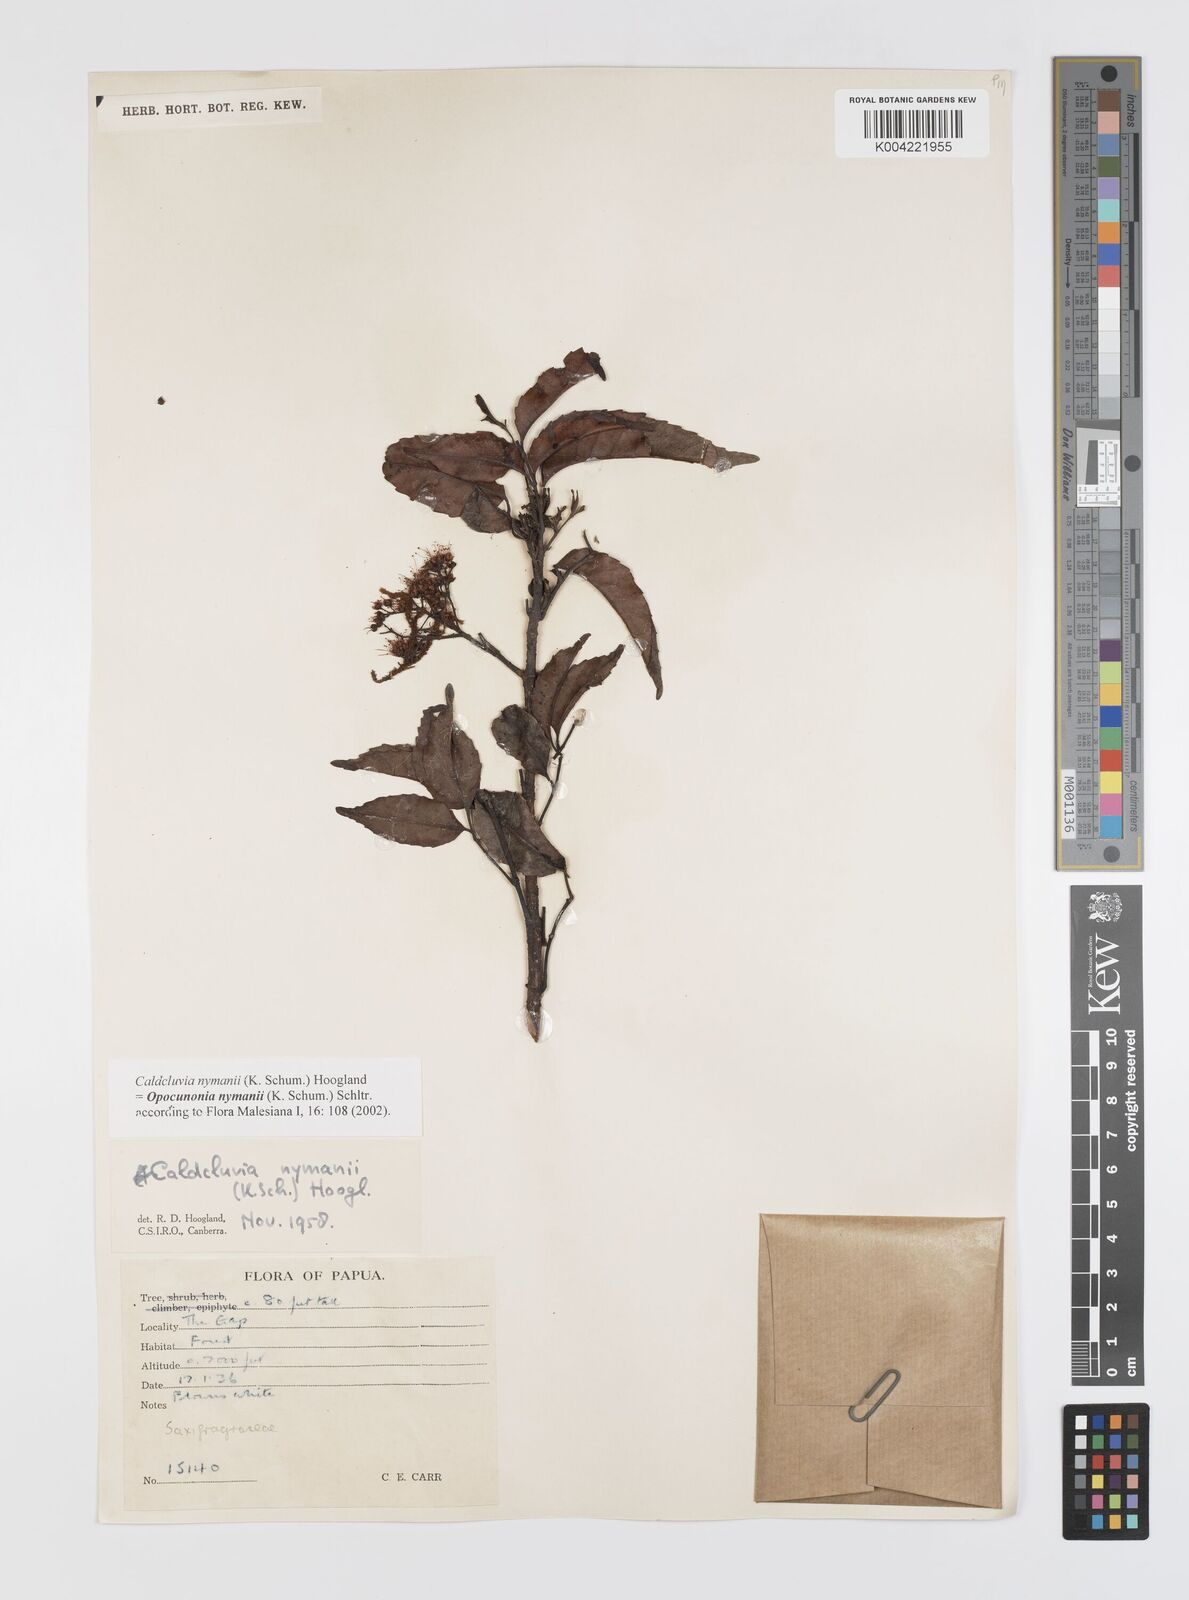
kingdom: Plantae
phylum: Tracheophyta
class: Magnoliopsida
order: Oxalidales
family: Cunoniaceae
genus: Opocunonia
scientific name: Opocunonia nymanii
